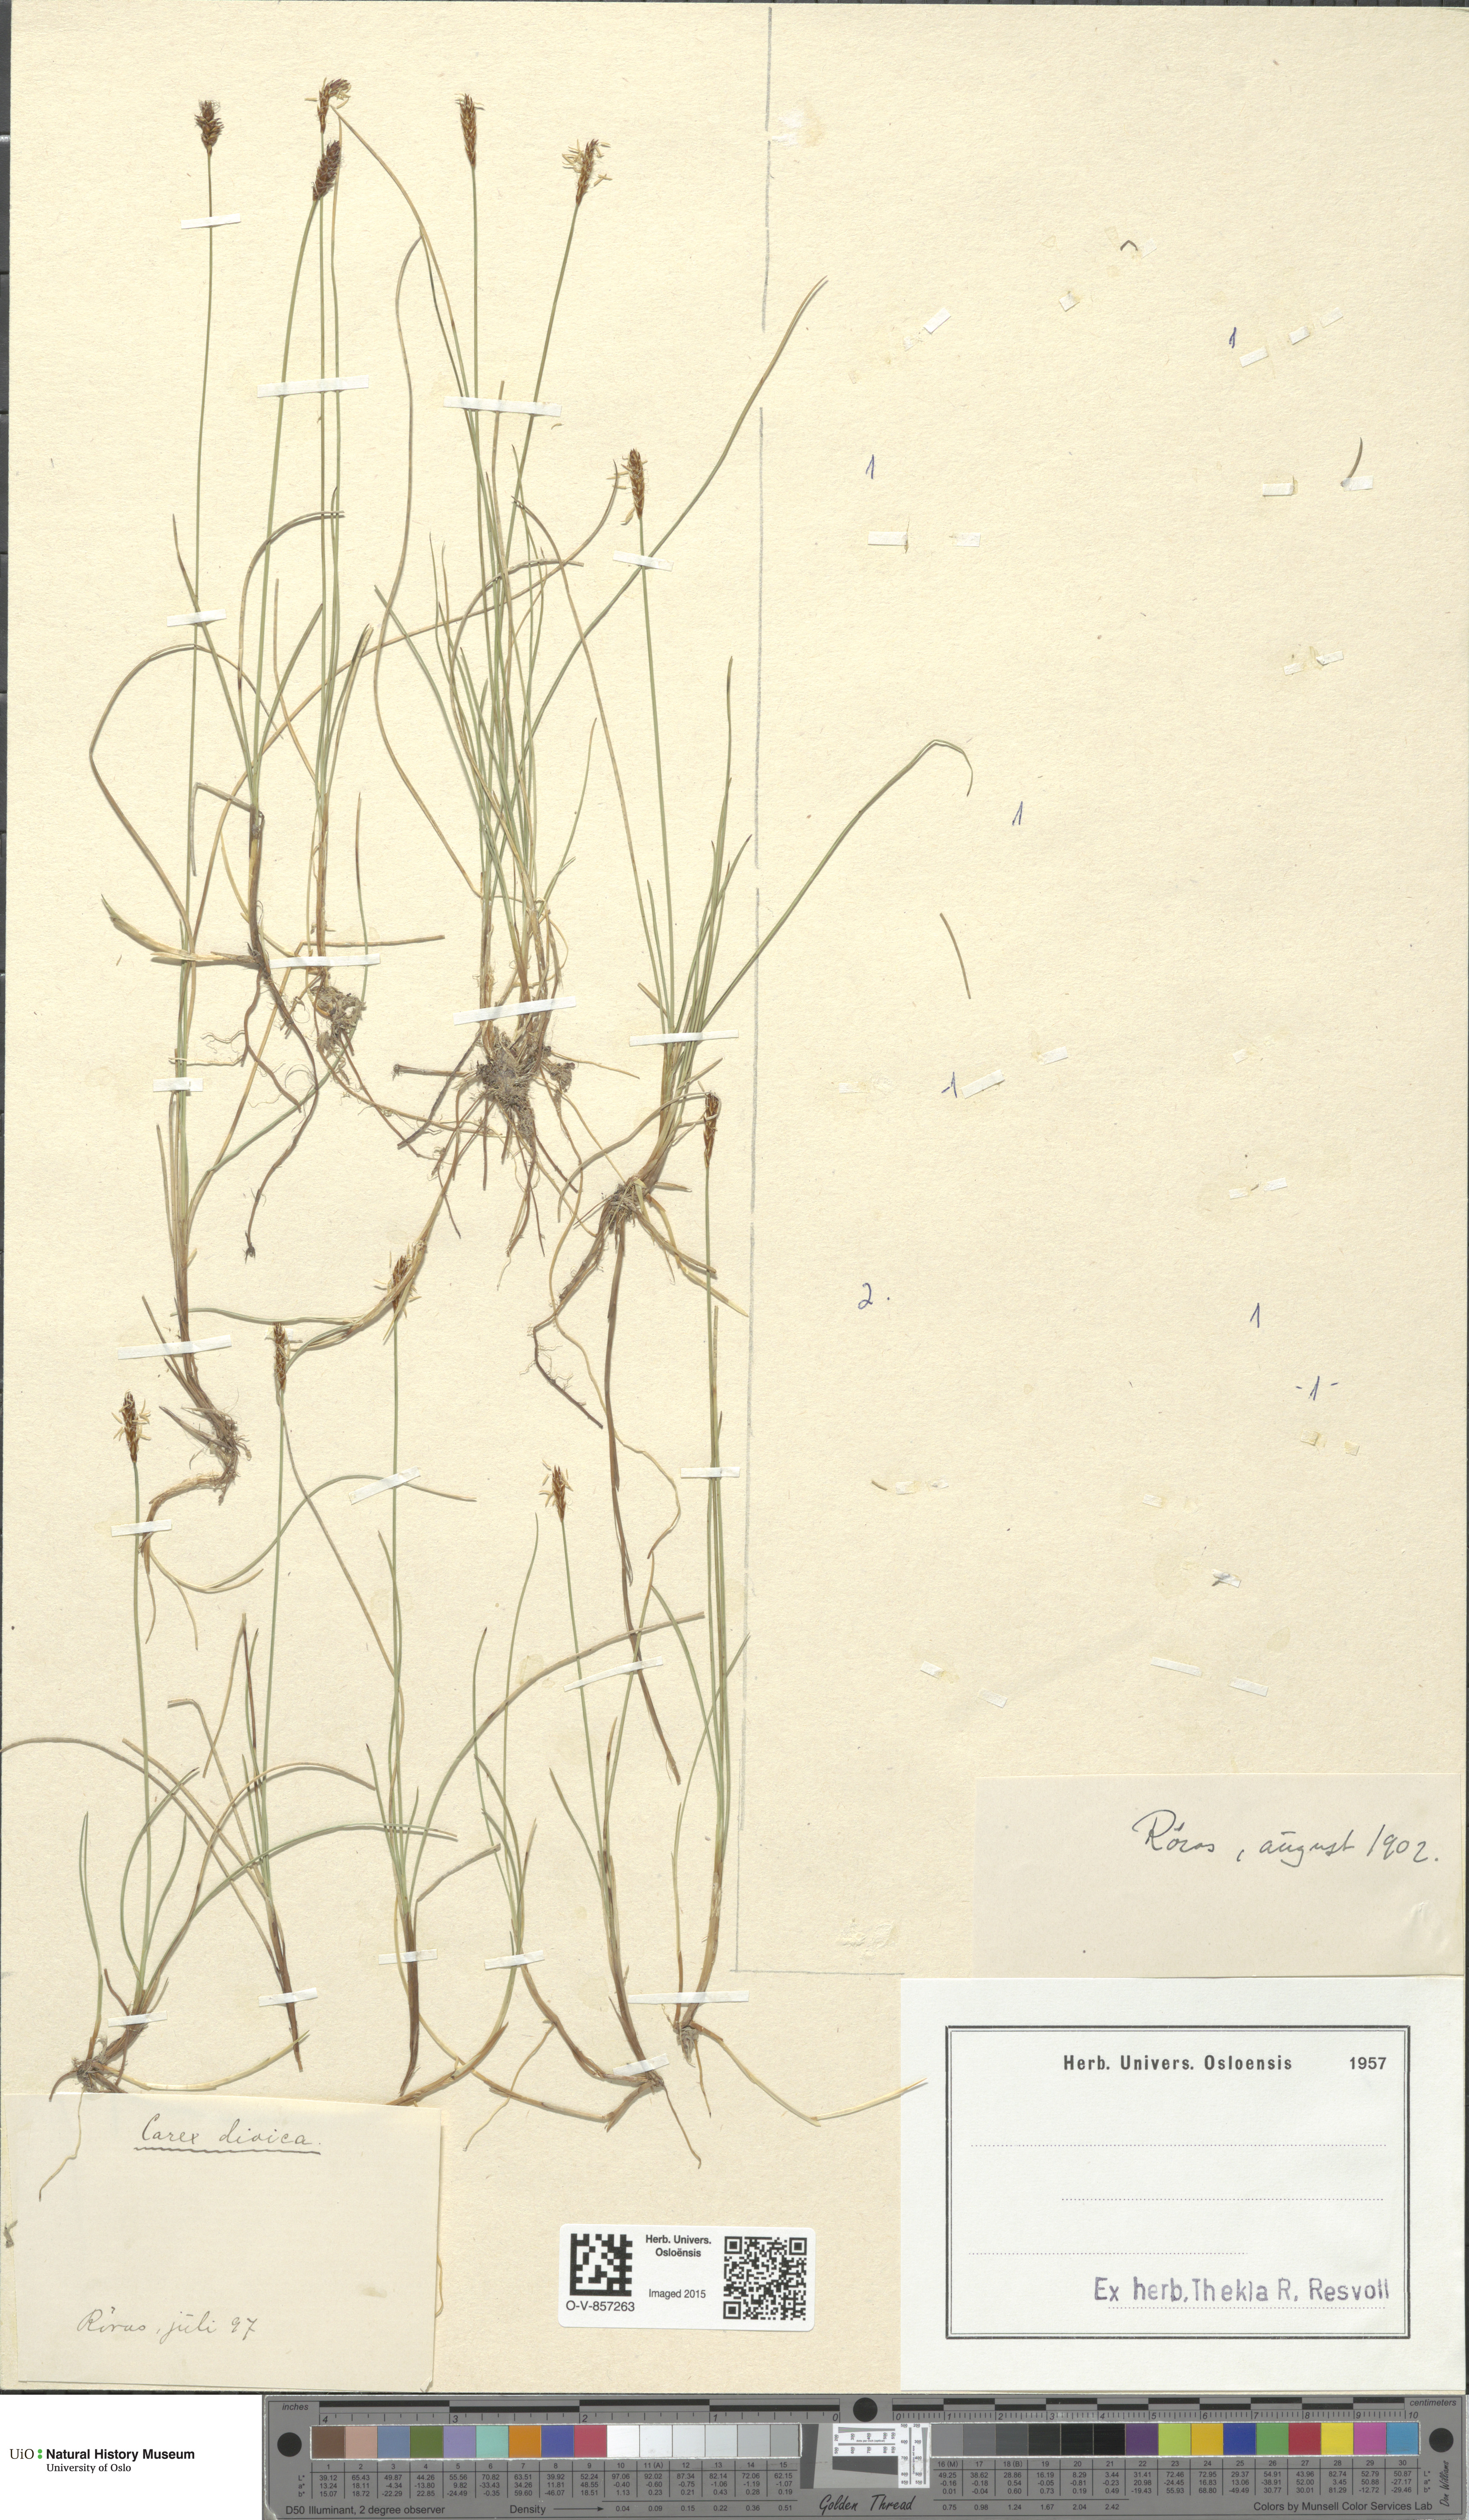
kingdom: Plantae
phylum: Tracheophyta
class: Liliopsida
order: Poales
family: Cyperaceae
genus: Carex
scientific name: Carex dioica
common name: Dioecious sedge
